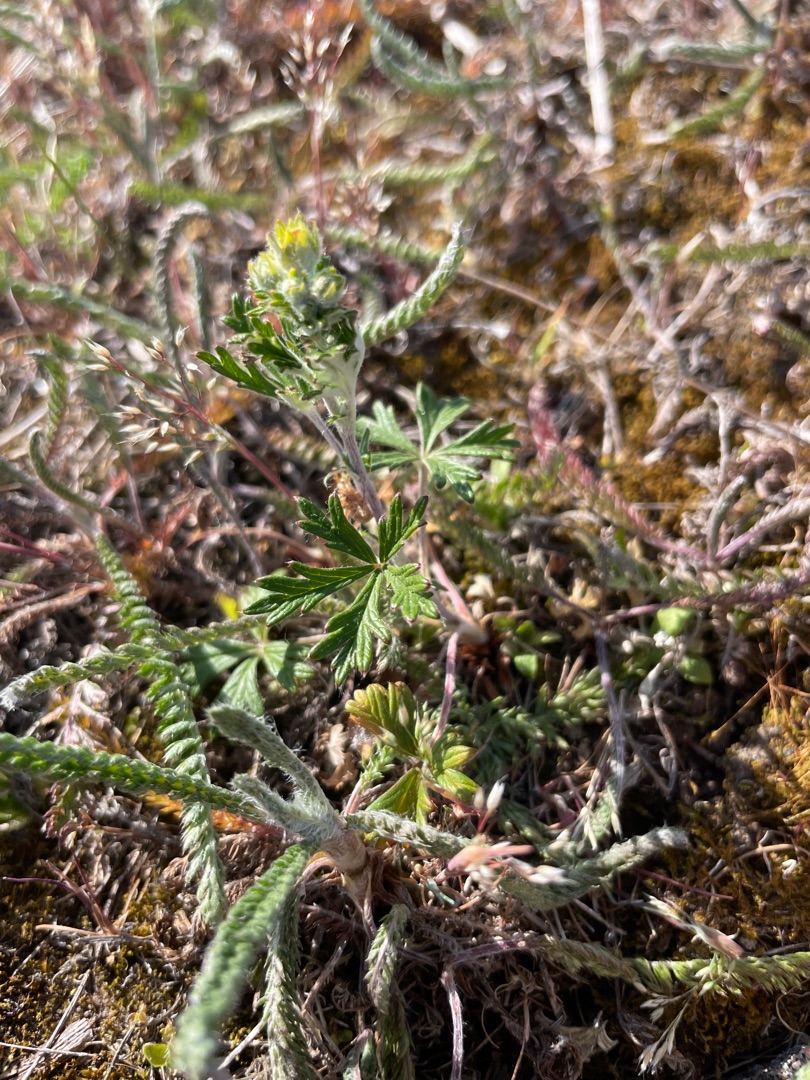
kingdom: Plantae
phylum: Tracheophyta
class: Magnoliopsida
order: Rosales
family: Rosaceae
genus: Potentilla
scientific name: Potentilla argentea
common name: Sølv-potentil
